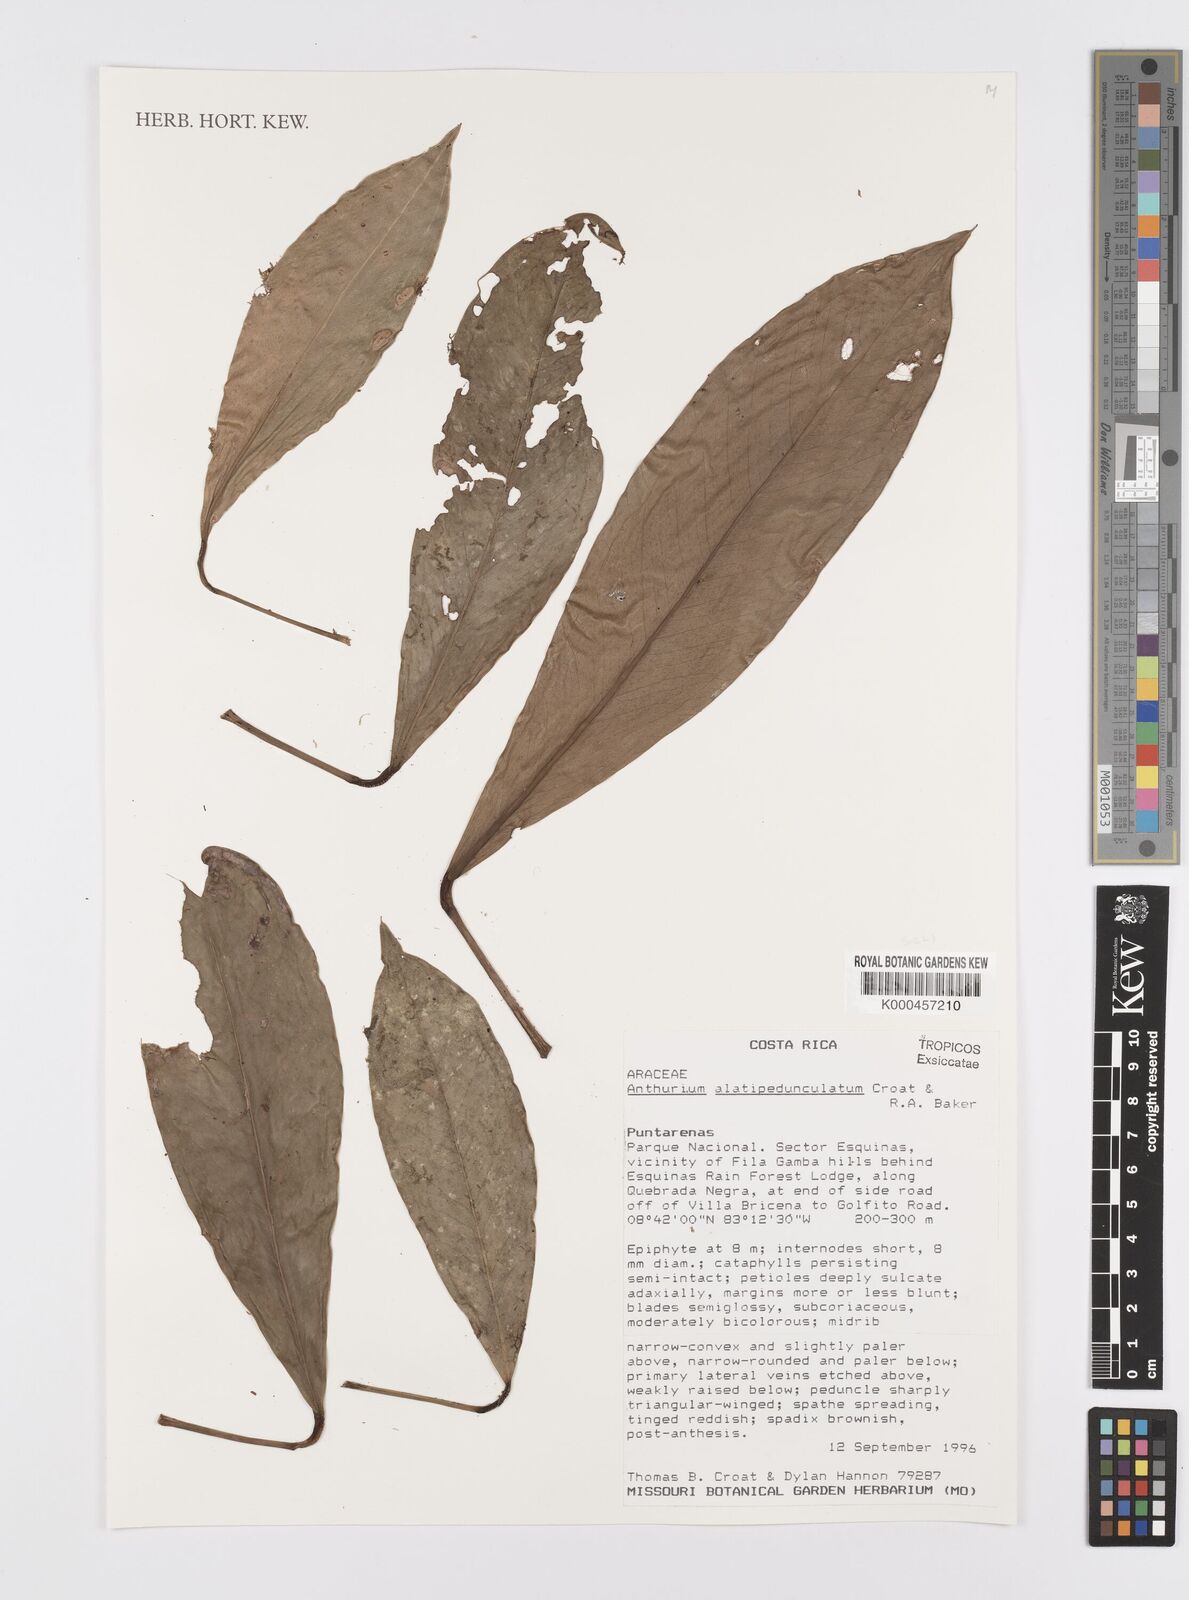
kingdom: Plantae
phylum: Tracheophyta
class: Liliopsida
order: Alismatales
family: Araceae
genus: Anthurium
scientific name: Anthurium alatipedunculatum
